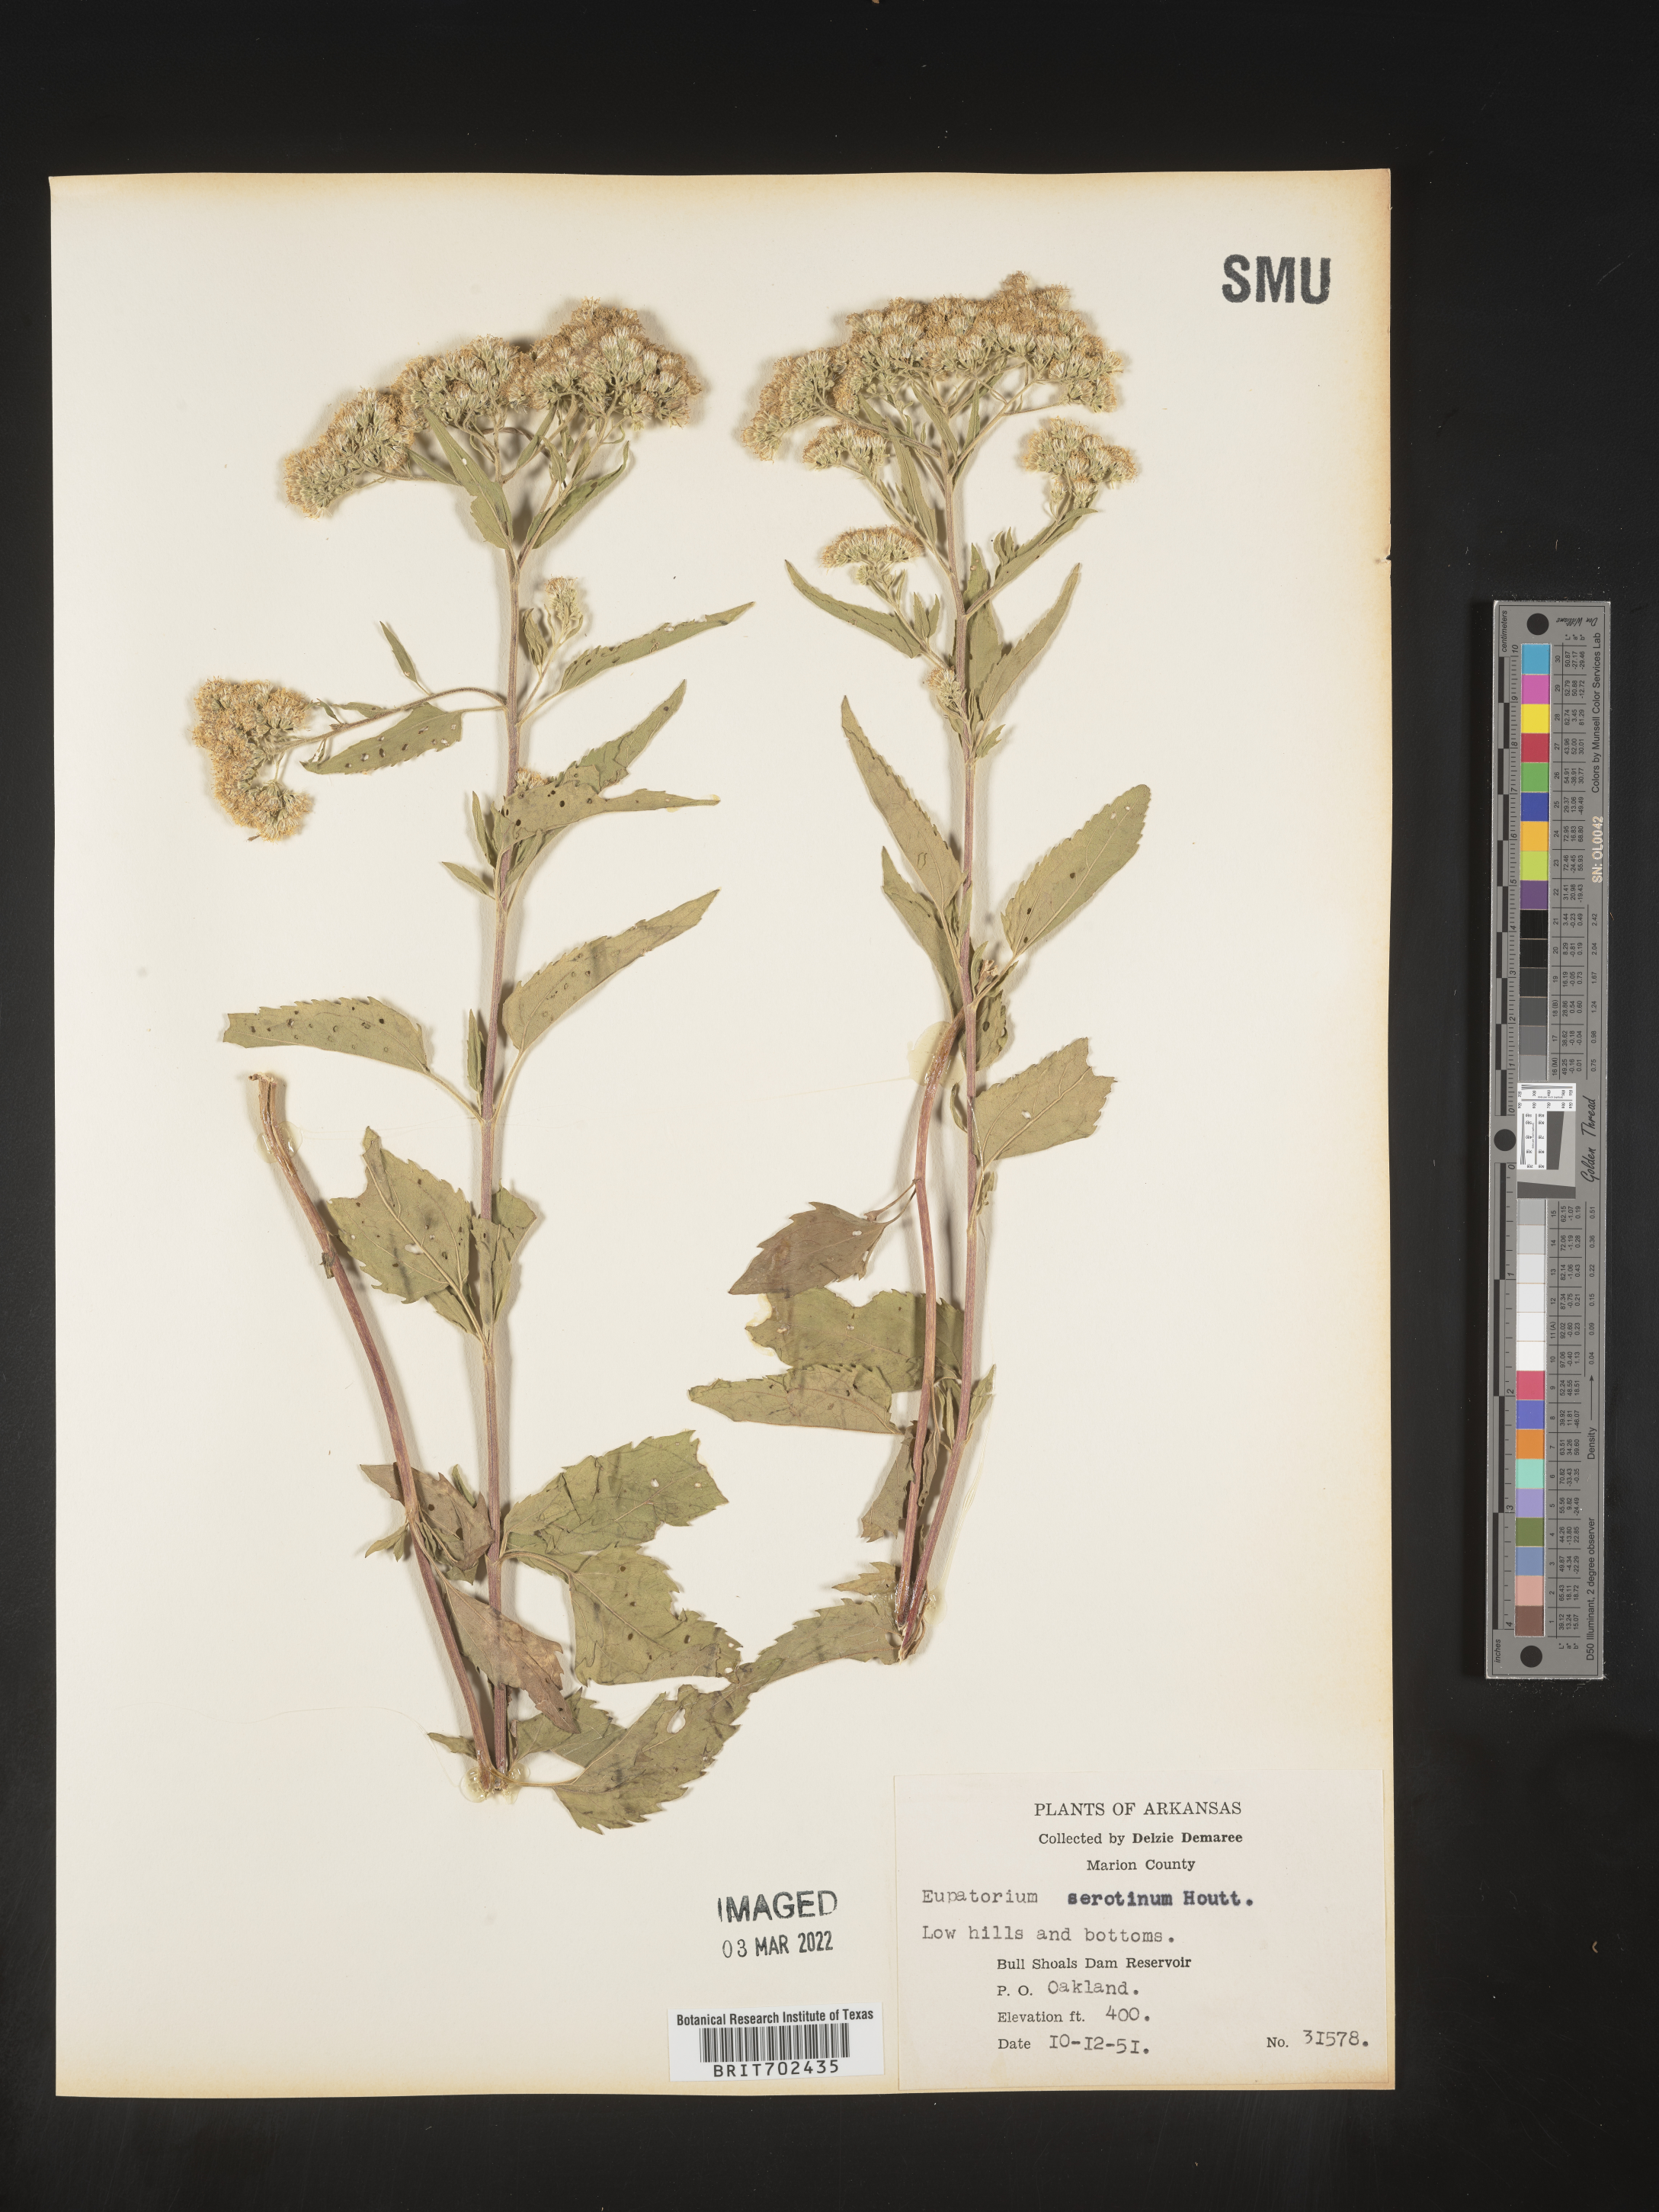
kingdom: Plantae
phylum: Tracheophyta
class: Magnoliopsida
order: Asterales
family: Asteraceae
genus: Eupatorium
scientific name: Eupatorium serotinum
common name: Late boneset
